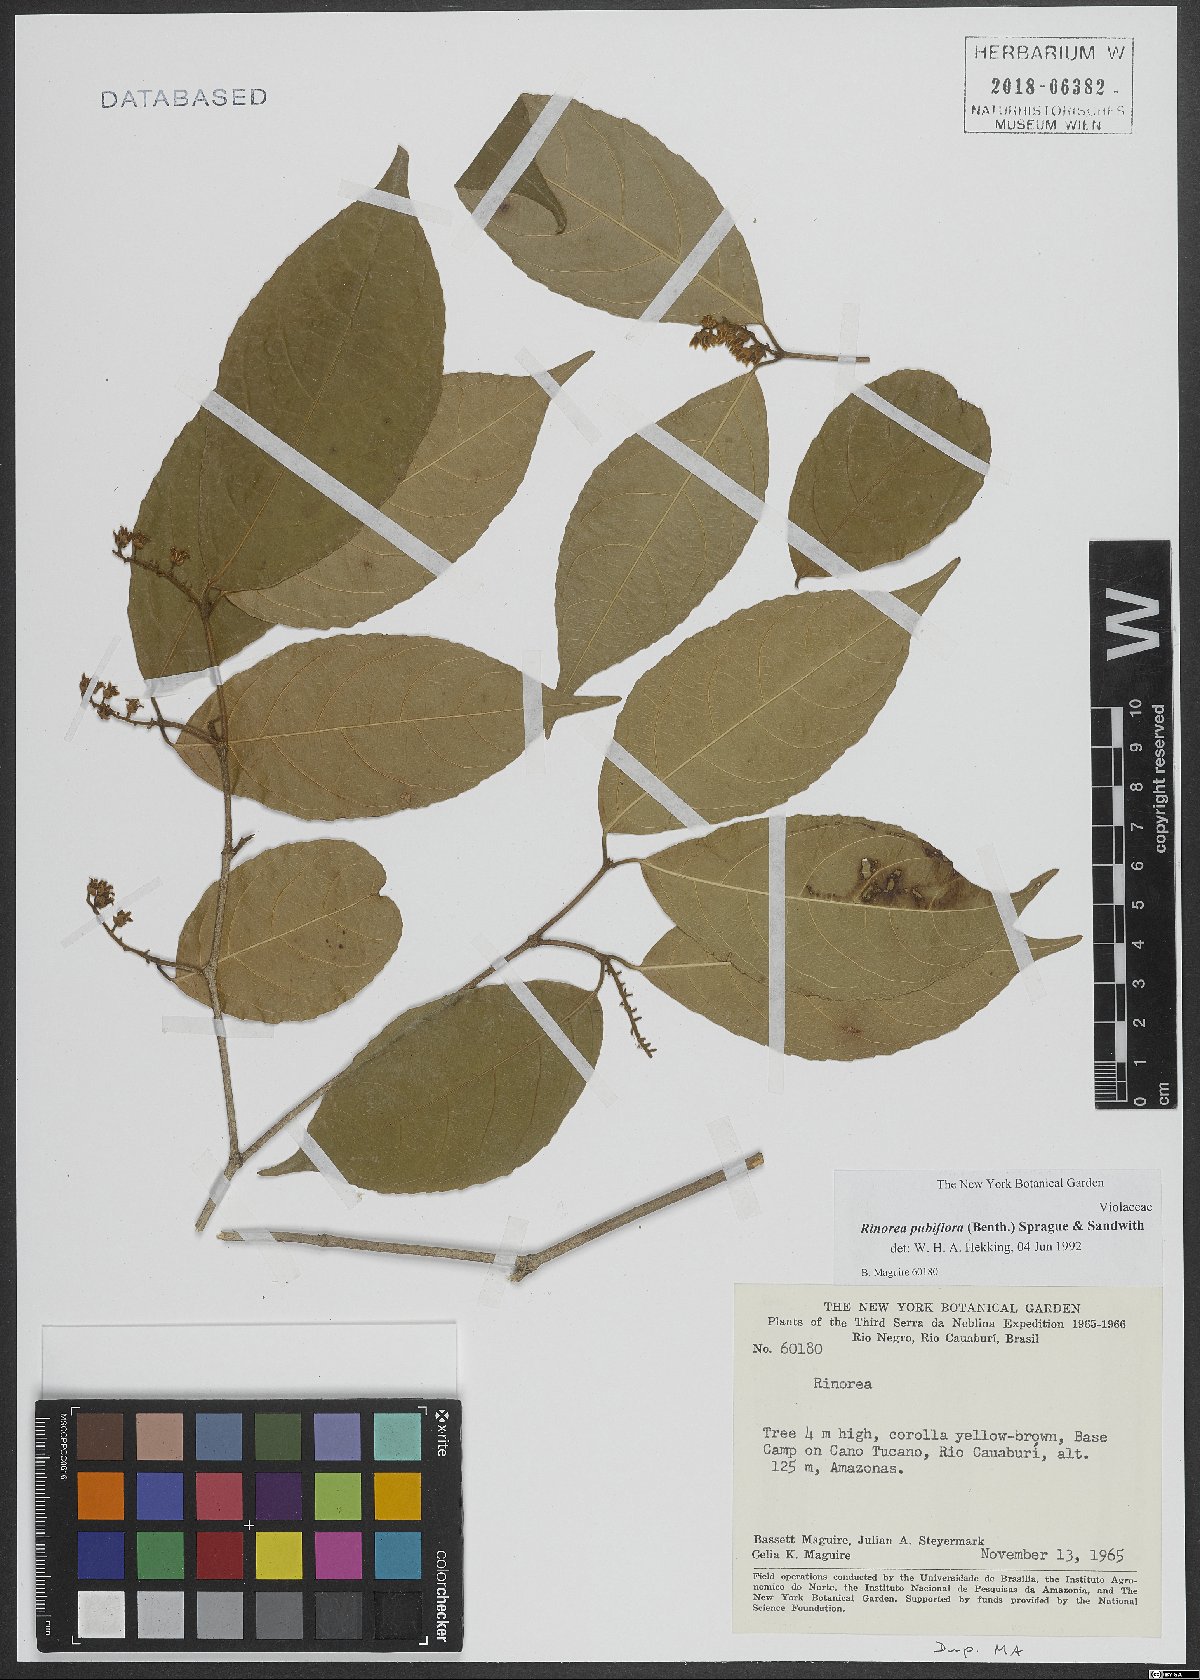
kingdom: Plantae
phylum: Tracheophyta
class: Magnoliopsida
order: Malpighiales
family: Violaceae
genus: Rinorea
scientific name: Rinorea pubiflora
